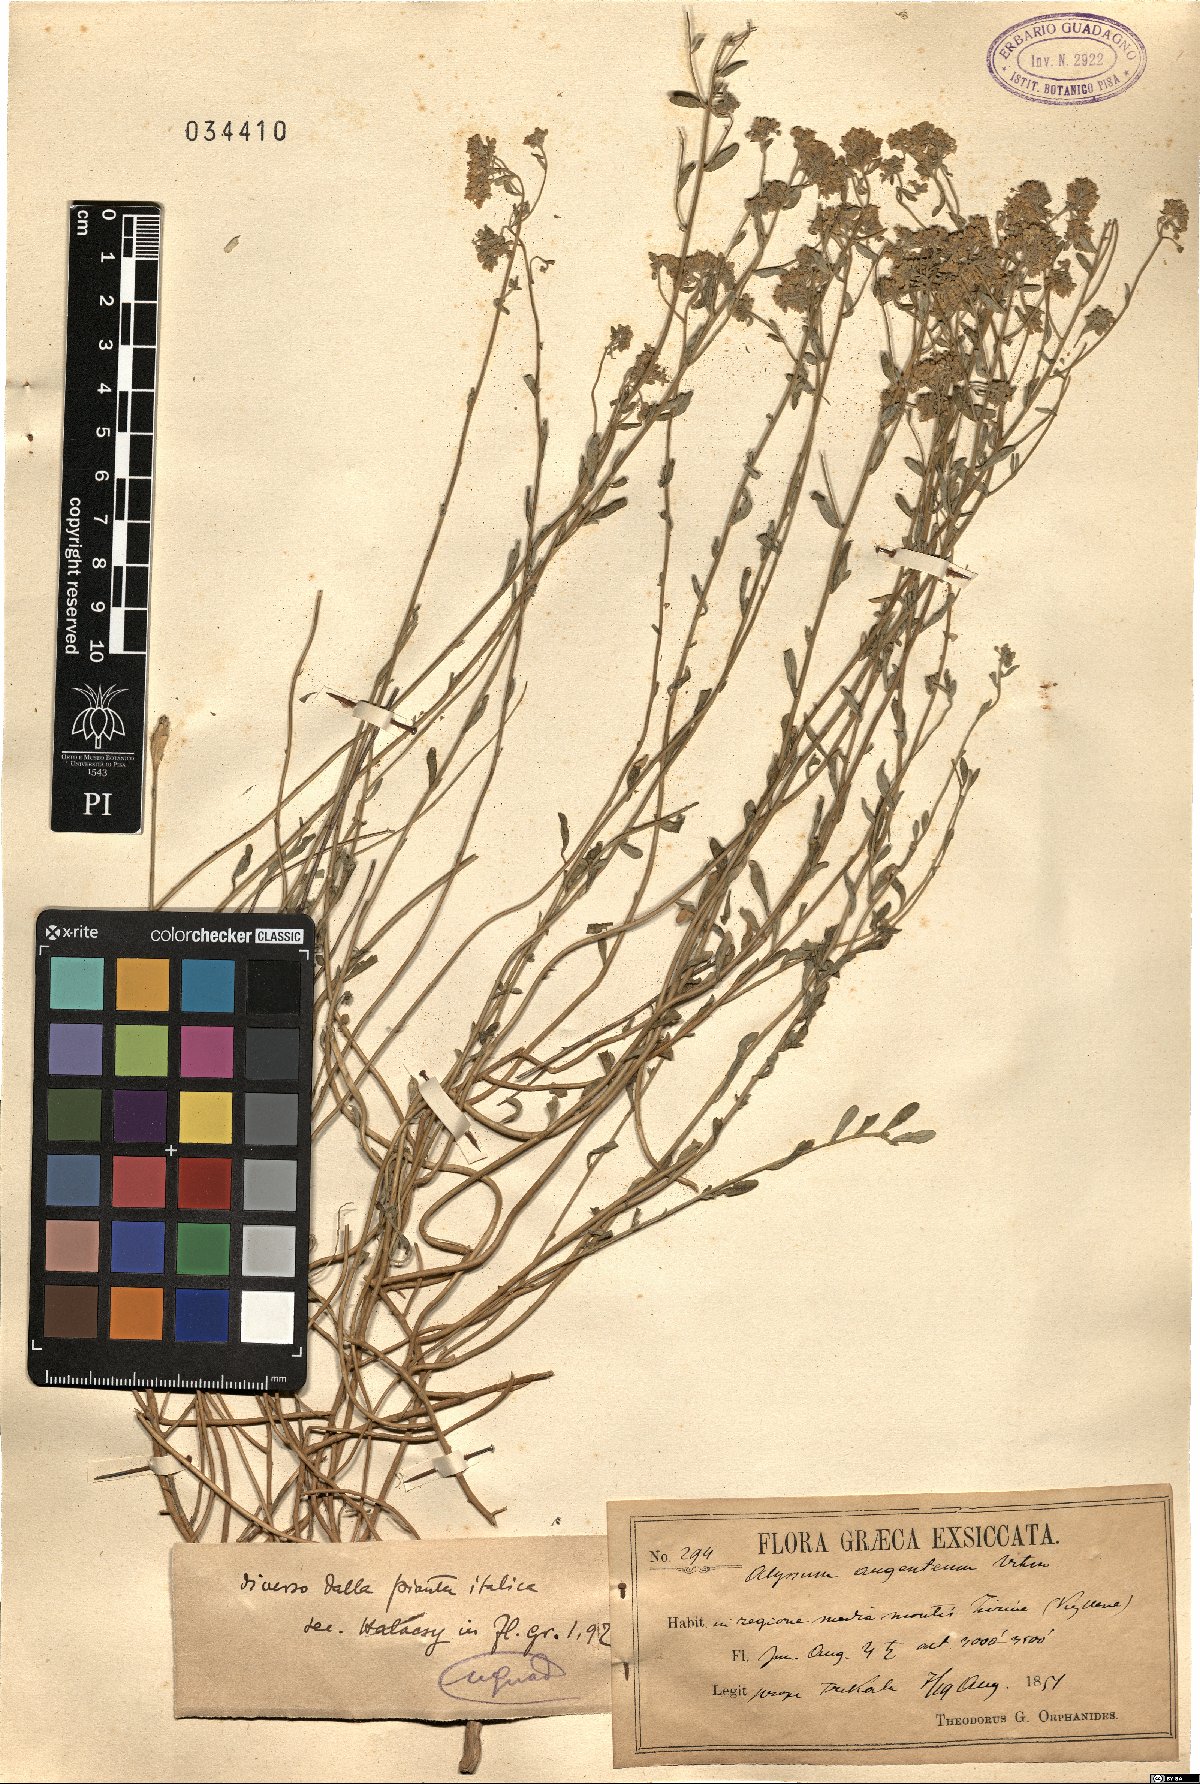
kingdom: Plantae
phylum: Tracheophyta
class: Magnoliopsida
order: Brassicales
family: Brassicaceae
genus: Odontarrhena
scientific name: Odontarrhena argentea
